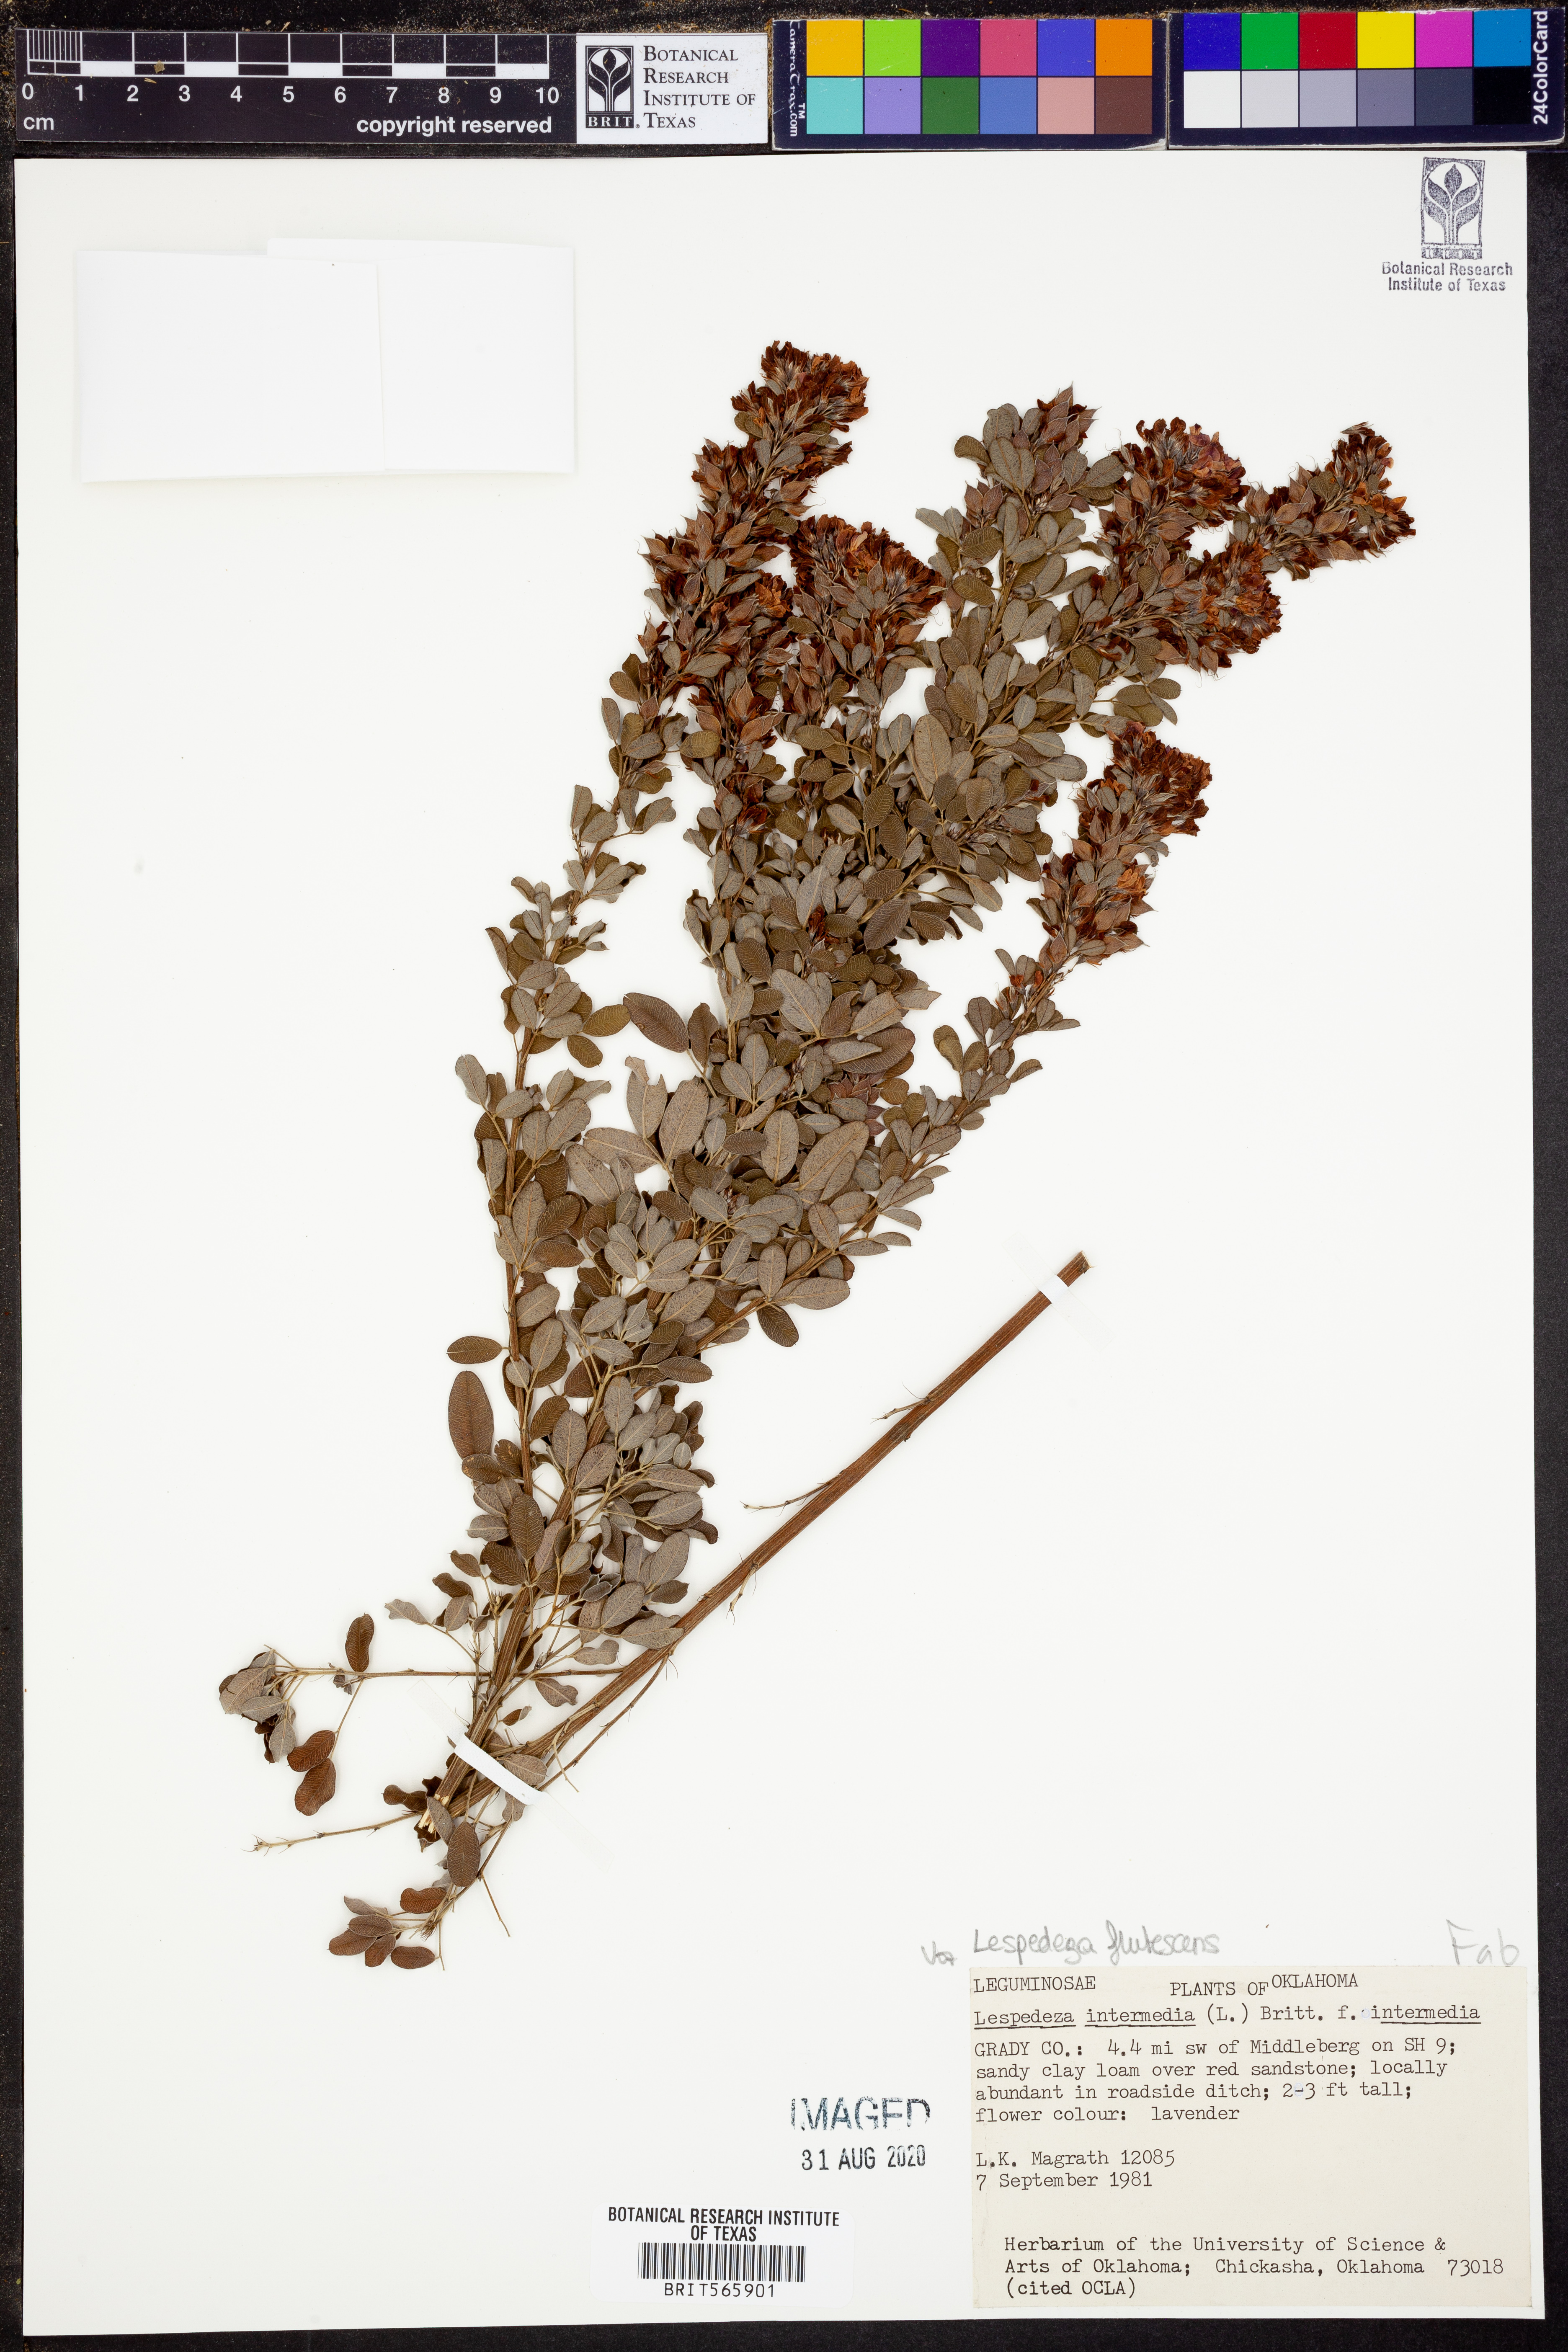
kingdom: Plantae
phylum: Tracheophyta
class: Magnoliopsida
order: Fabales
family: Fabaceae
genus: Lespedeza
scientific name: Lespedeza violacea
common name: Wand bush-clover
